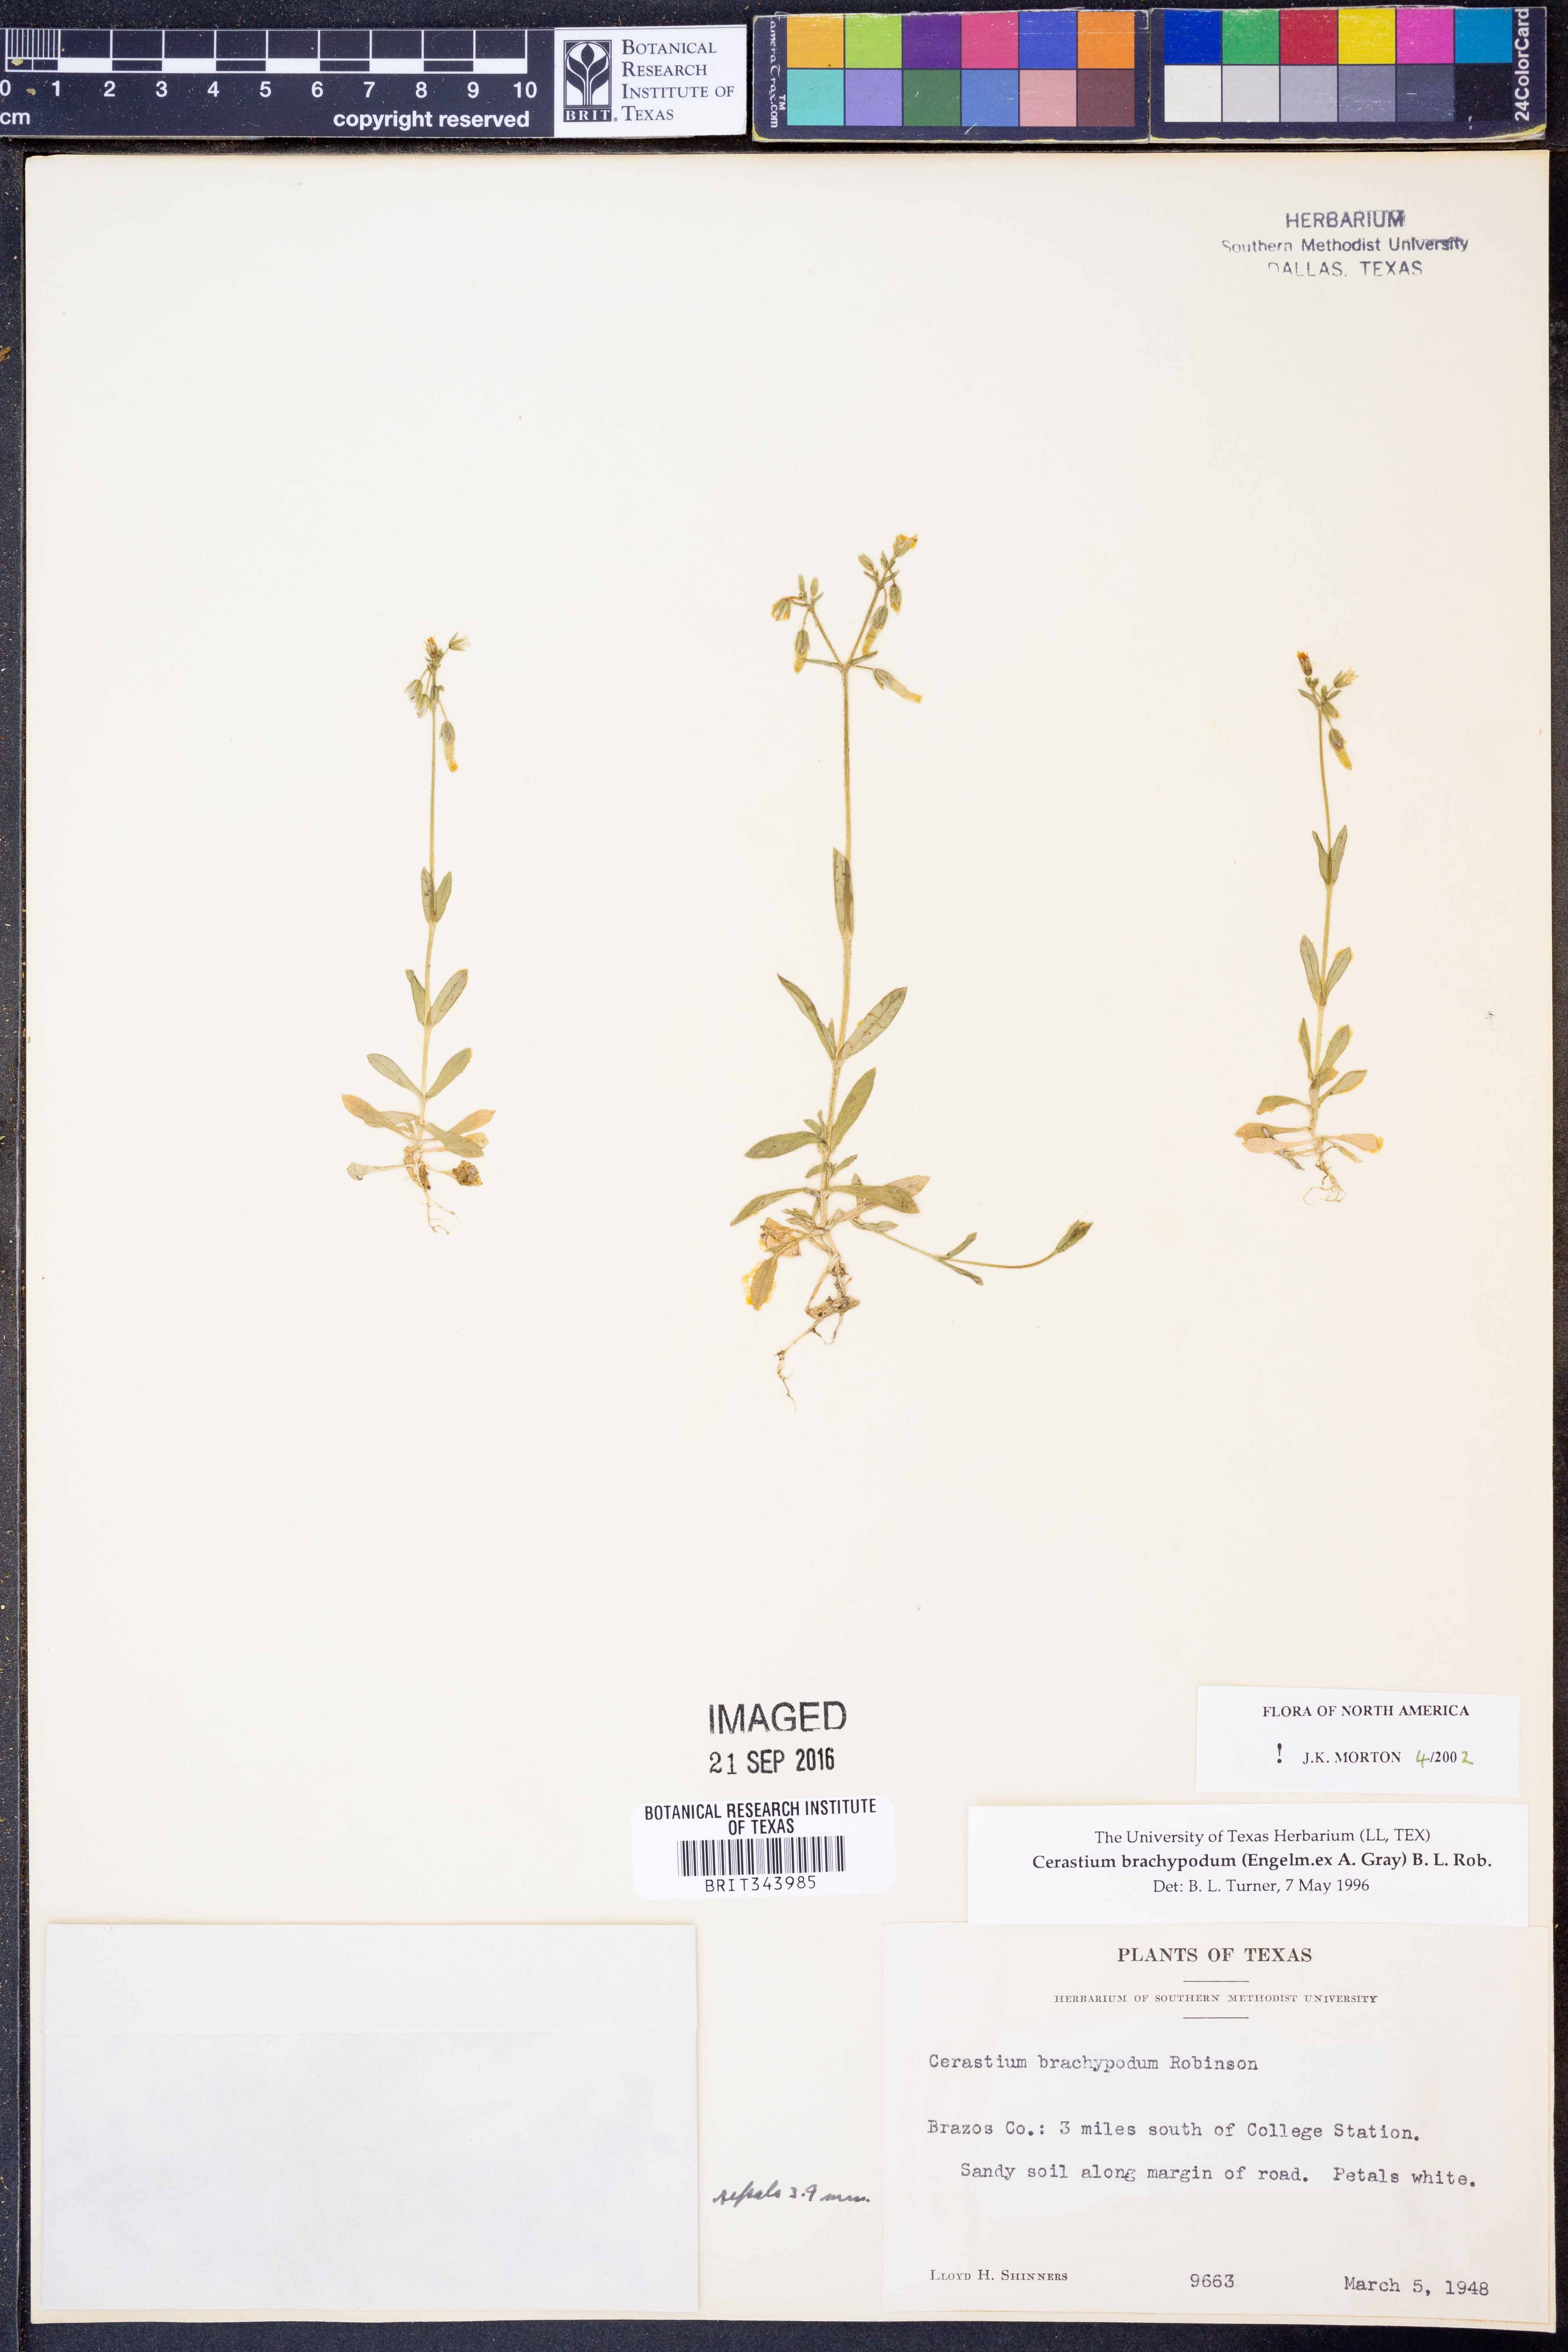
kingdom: Plantae
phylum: Tracheophyta
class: Magnoliopsida
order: Caryophyllales
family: Caryophyllaceae
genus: Cerastium
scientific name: Cerastium brachypodum
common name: Short-pedicelled nodding chickweed
